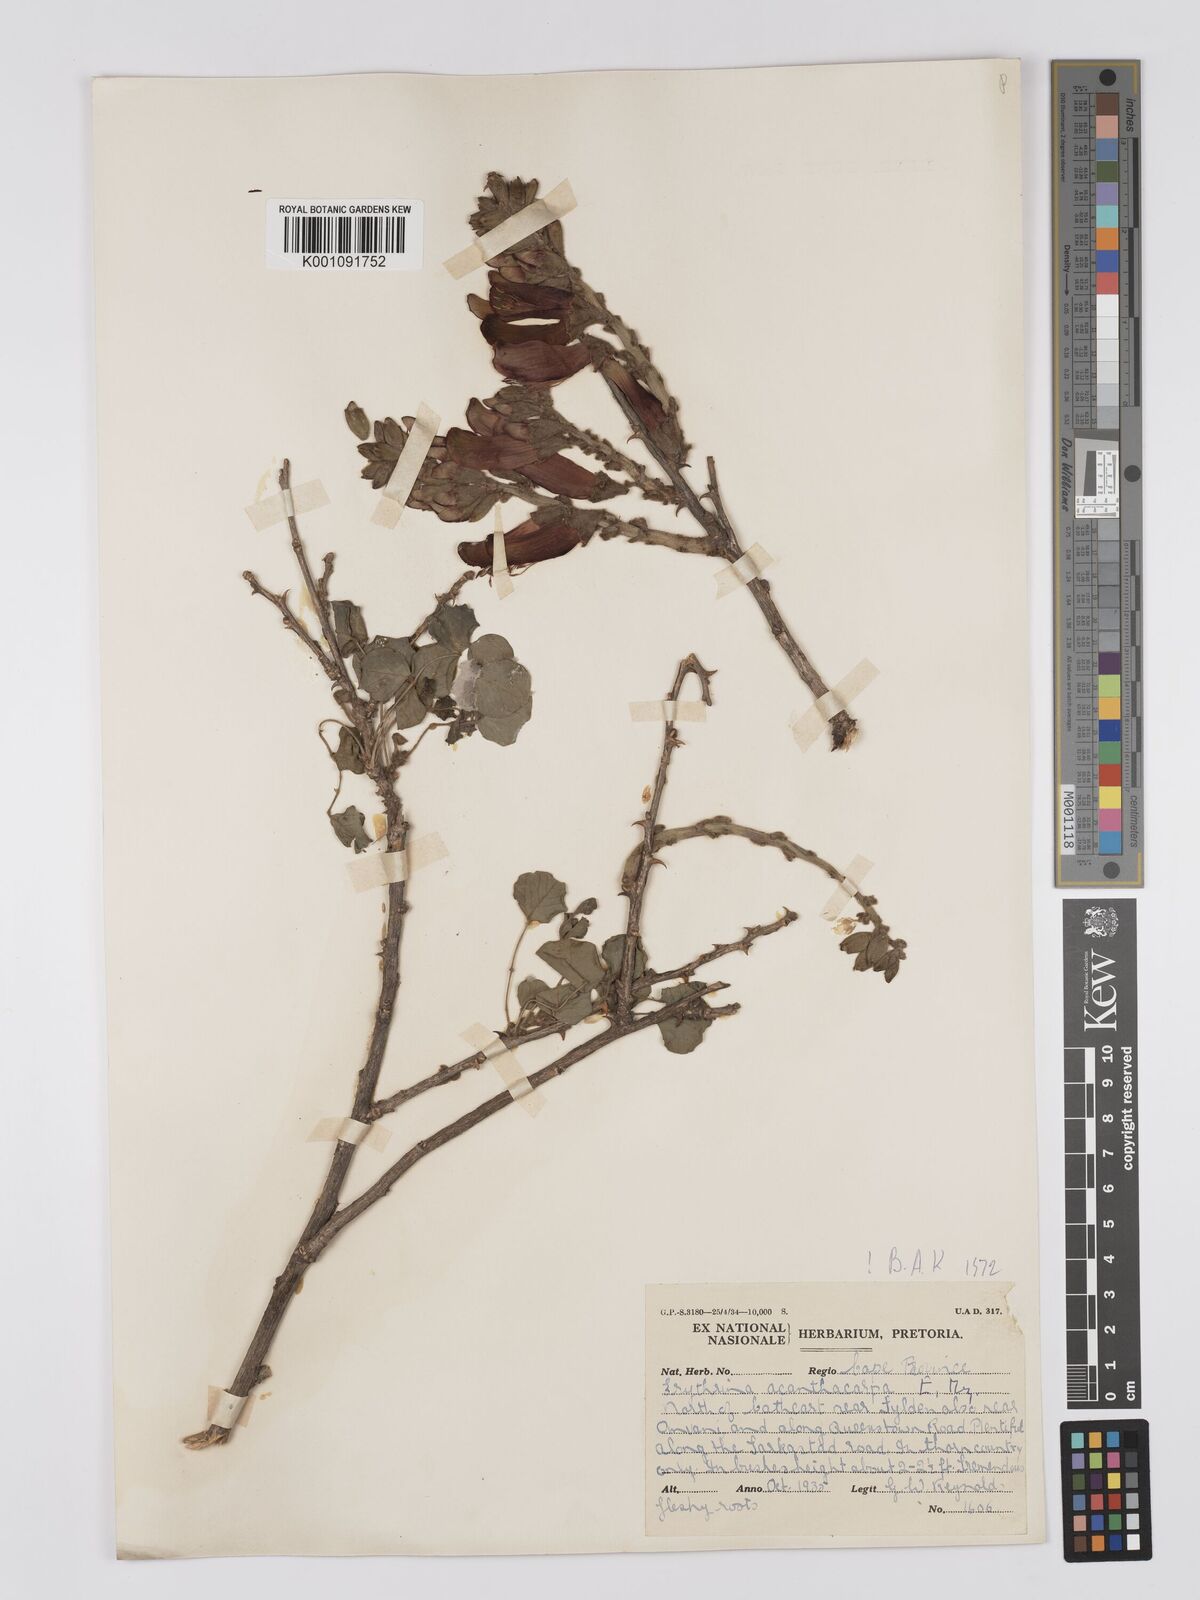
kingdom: Plantae
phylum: Tracheophyta
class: Magnoliopsida
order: Fabales
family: Fabaceae
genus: Erythrina
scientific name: Erythrina acanthocarpa
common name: Thorny coraltree
